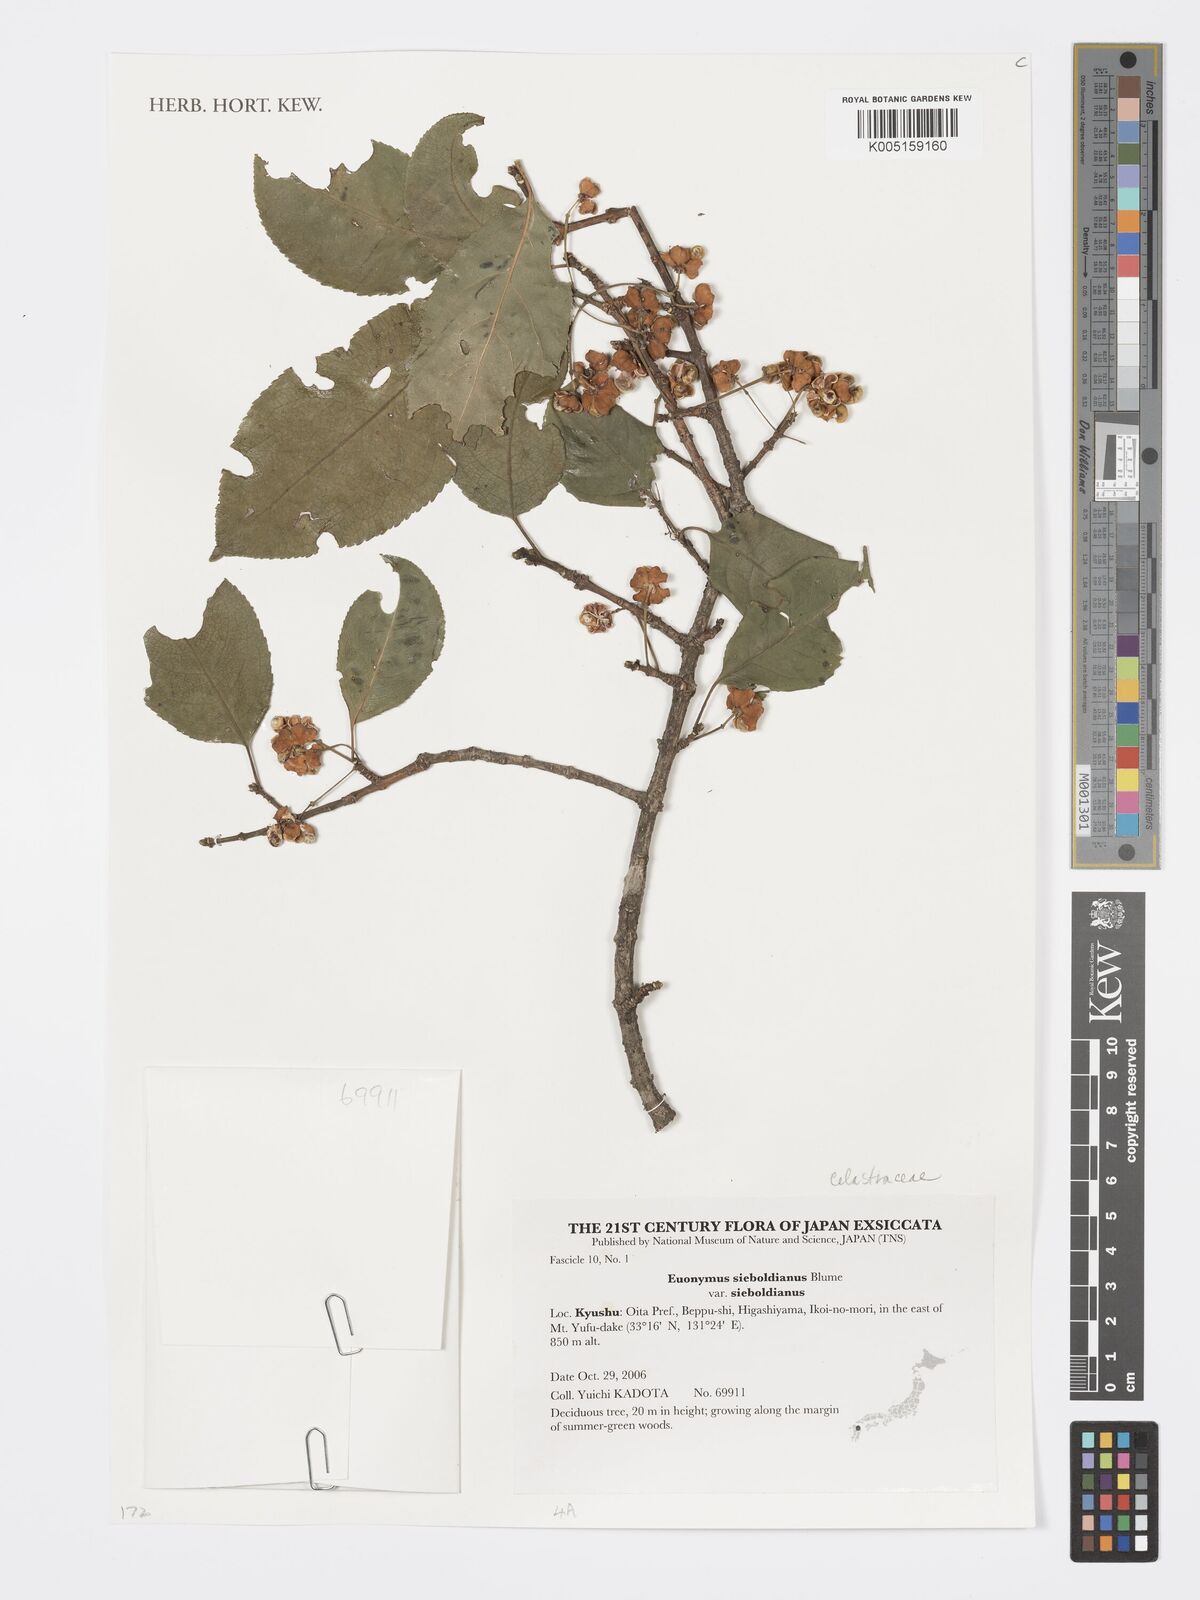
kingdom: Plantae
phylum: Tracheophyta
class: Magnoliopsida
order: Celastrales
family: Celastraceae
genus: Euonymus
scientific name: Euonymus hamiltonianus
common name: Hamilton's spindletree
